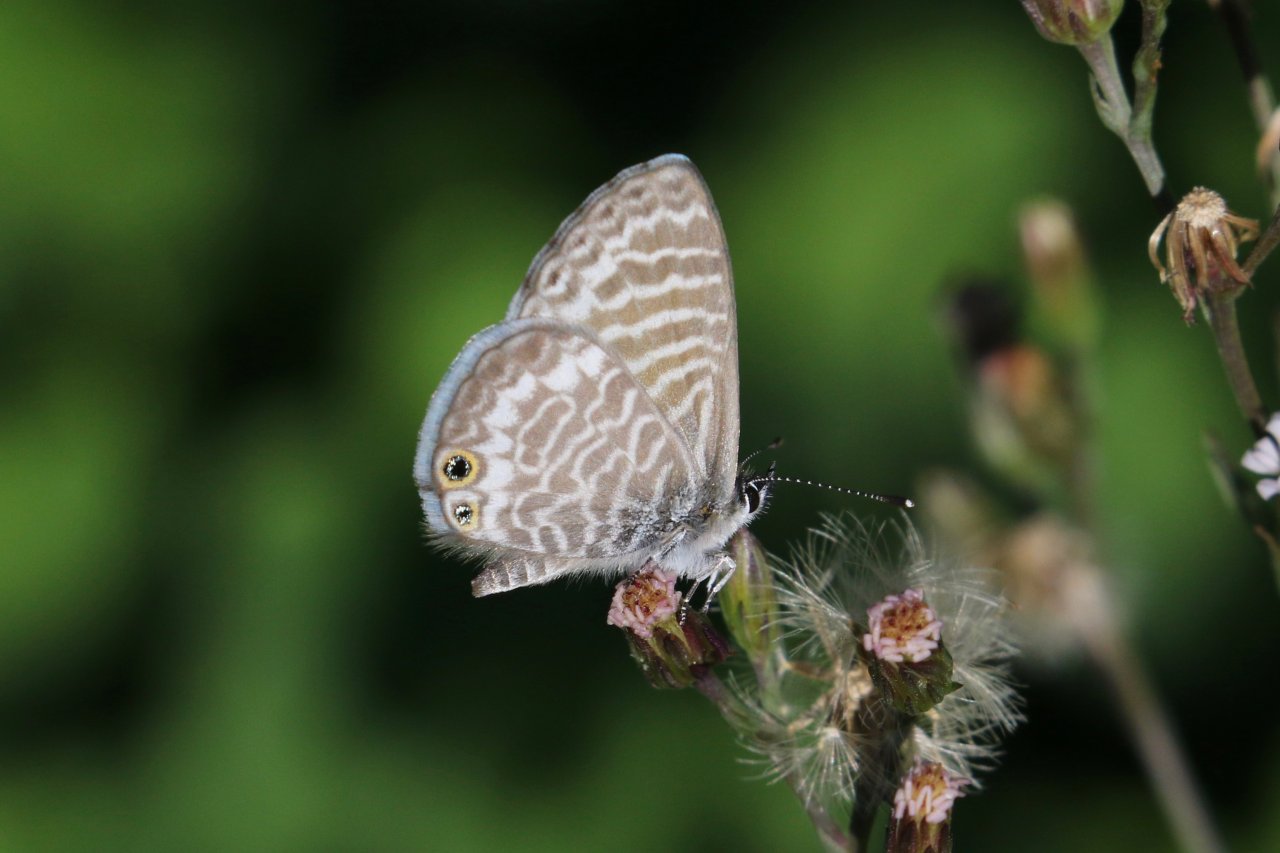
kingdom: Animalia
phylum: Arthropoda
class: Insecta
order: Lepidoptera
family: Lycaenidae
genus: Leptotes
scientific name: Leptotes marina
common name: Marine Blue
